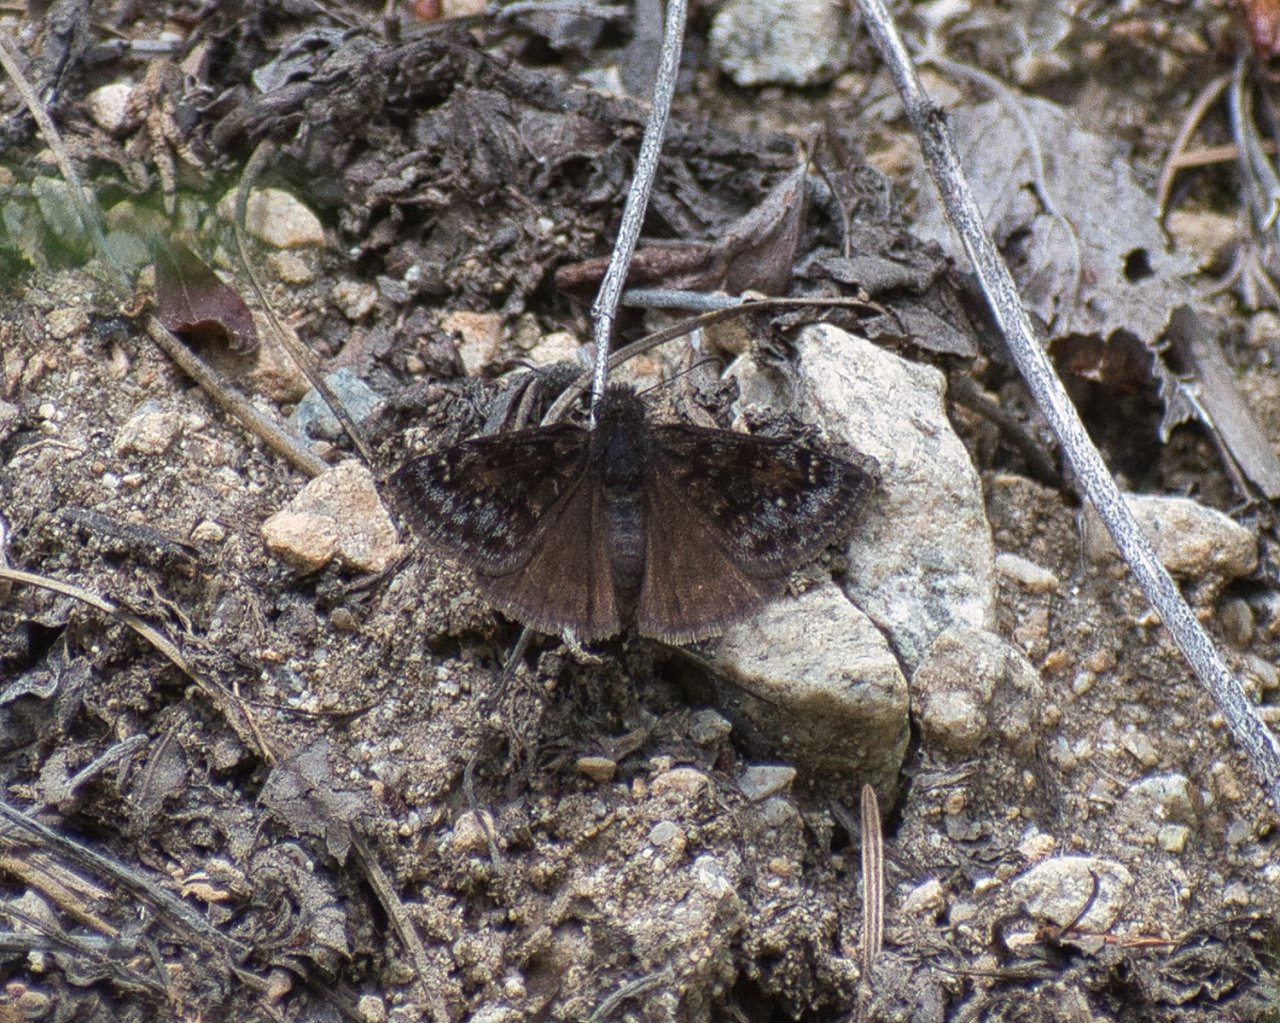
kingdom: Animalia
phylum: Arthropoda
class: Insecta
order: Lepidoptera
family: Hesperiidae
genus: Erynnis
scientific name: Erynnis pacuvius
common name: Pacuvius Duskywing
